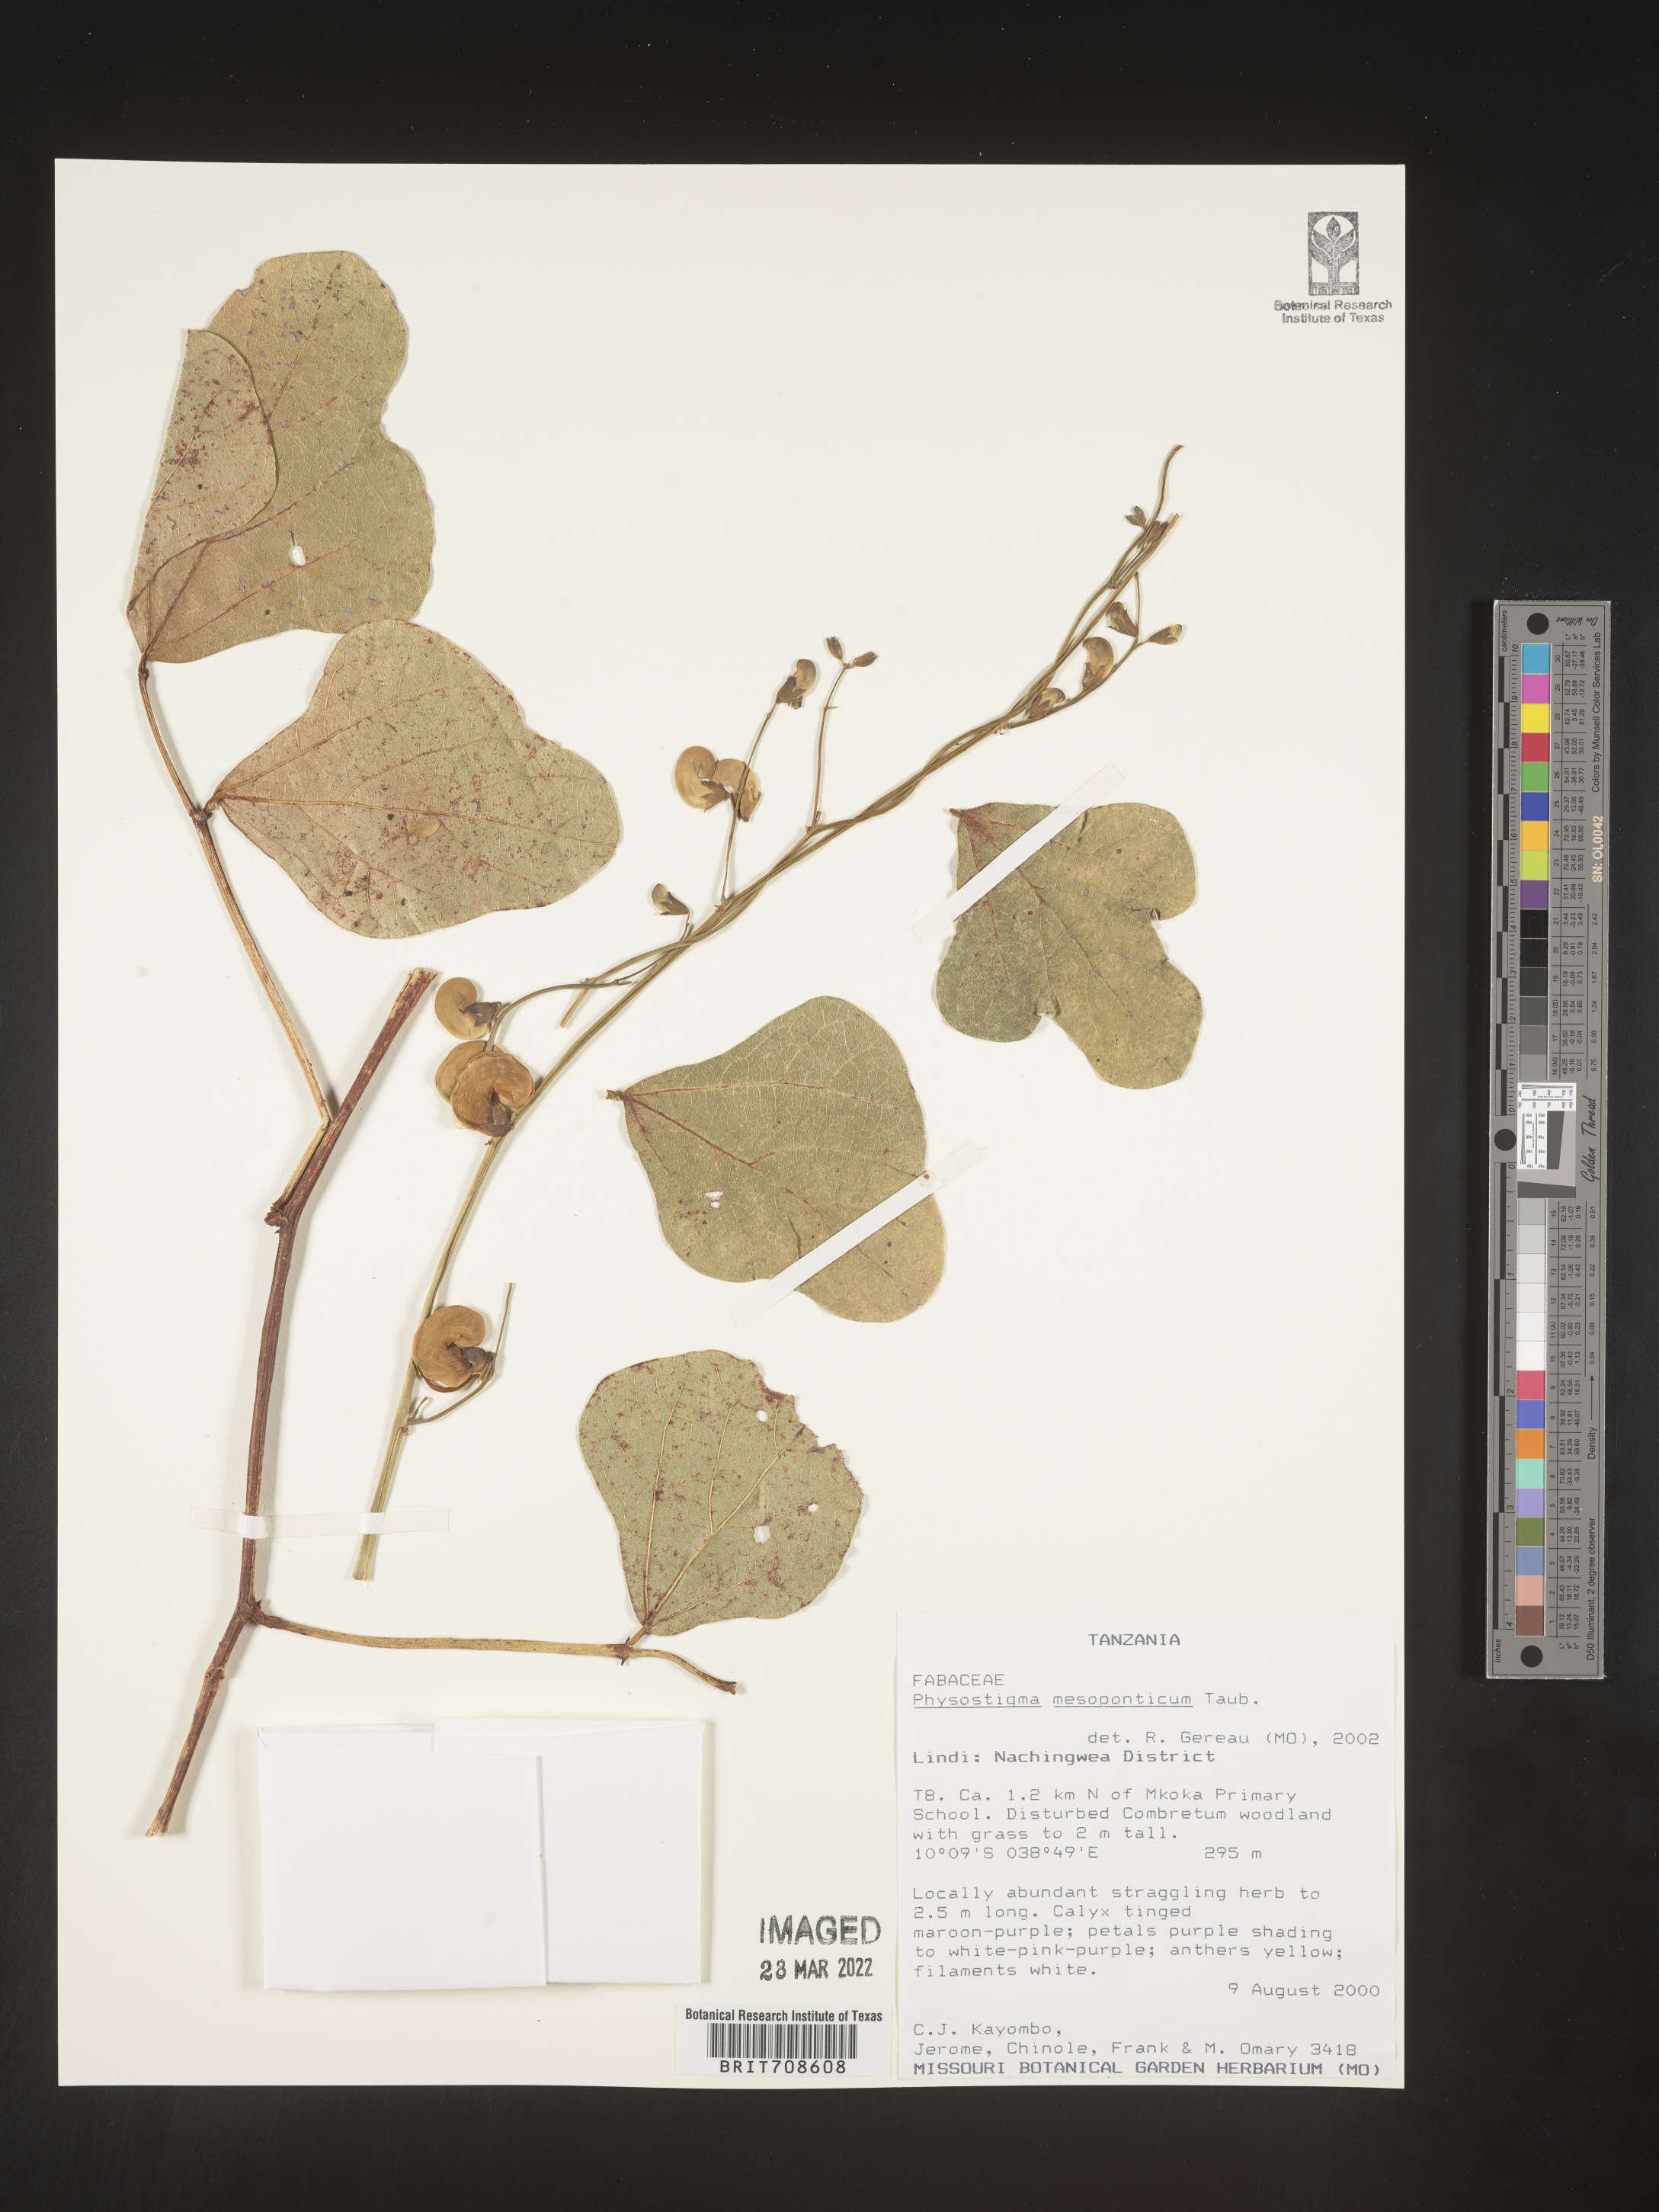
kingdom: Plantae
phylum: Tracheophyta
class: Magnoliopsida
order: Fabales
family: Fabaceae
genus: Physostigma
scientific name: Physostigma
